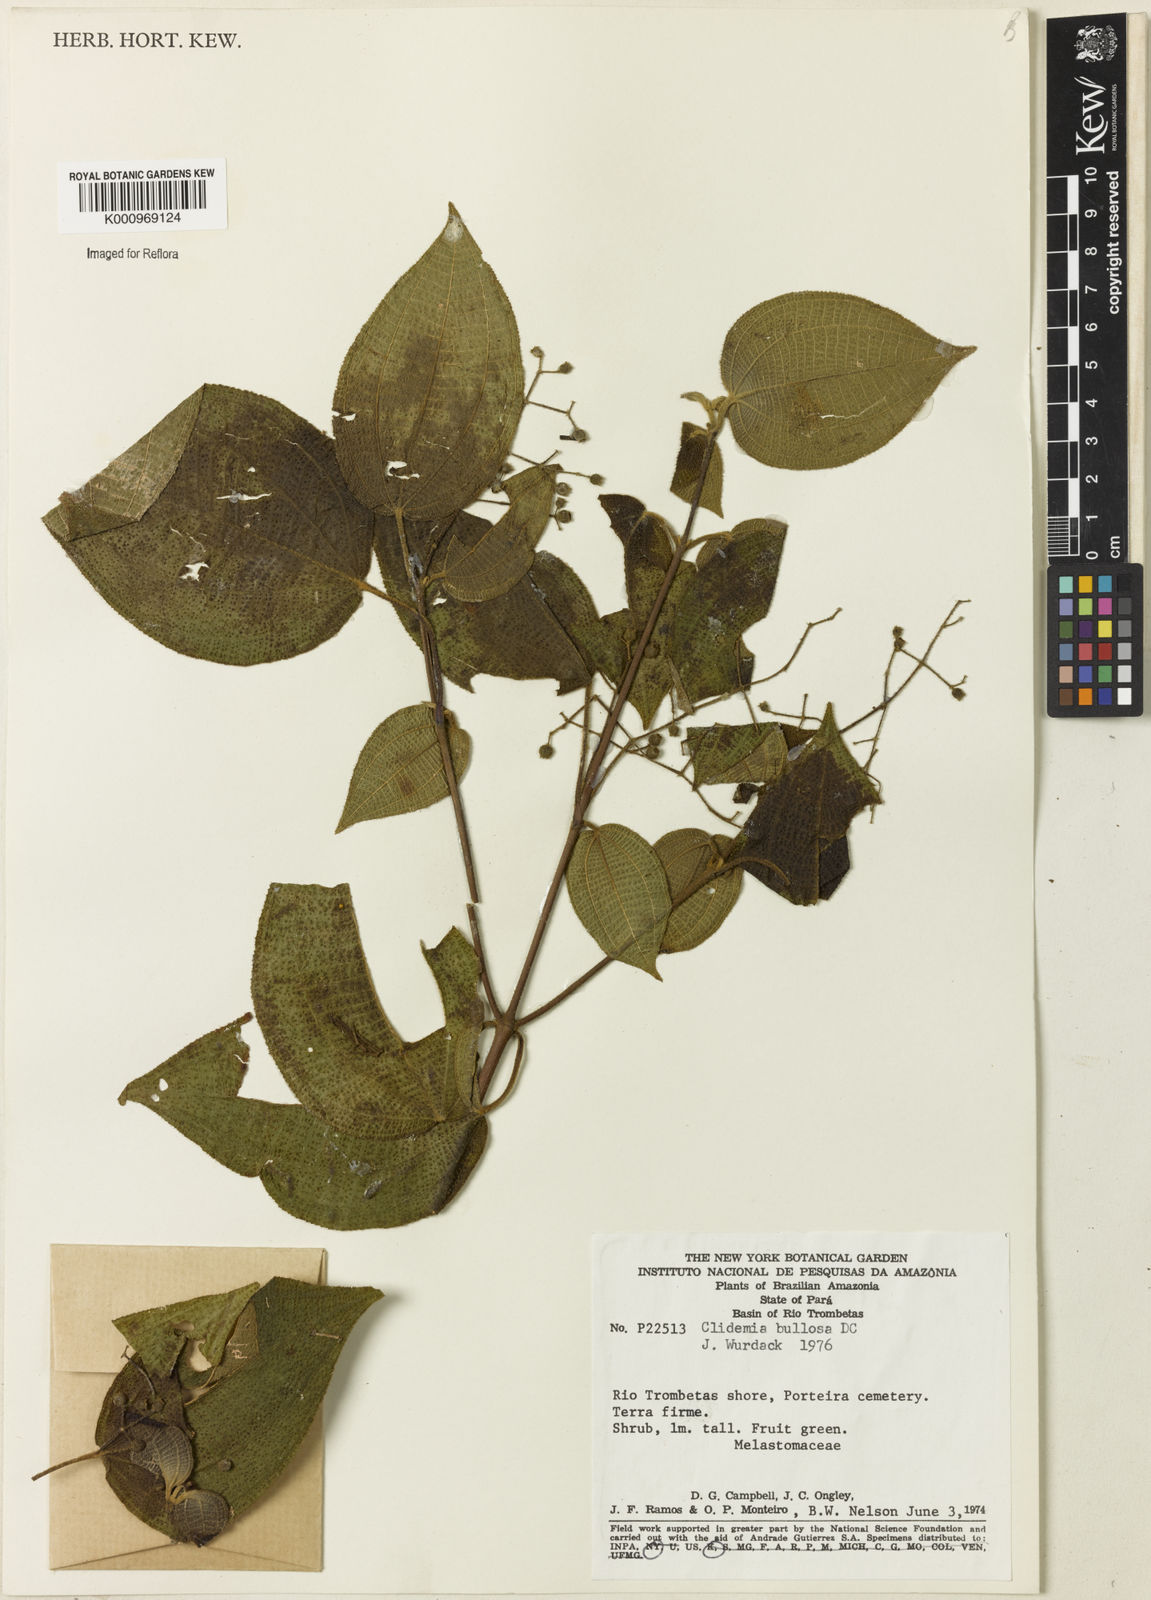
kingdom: Plantae
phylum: Tracheophyta
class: Magnoliopsida
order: Myrtales
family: Melastomataceae
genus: Miconia
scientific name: Miconia biserrata
